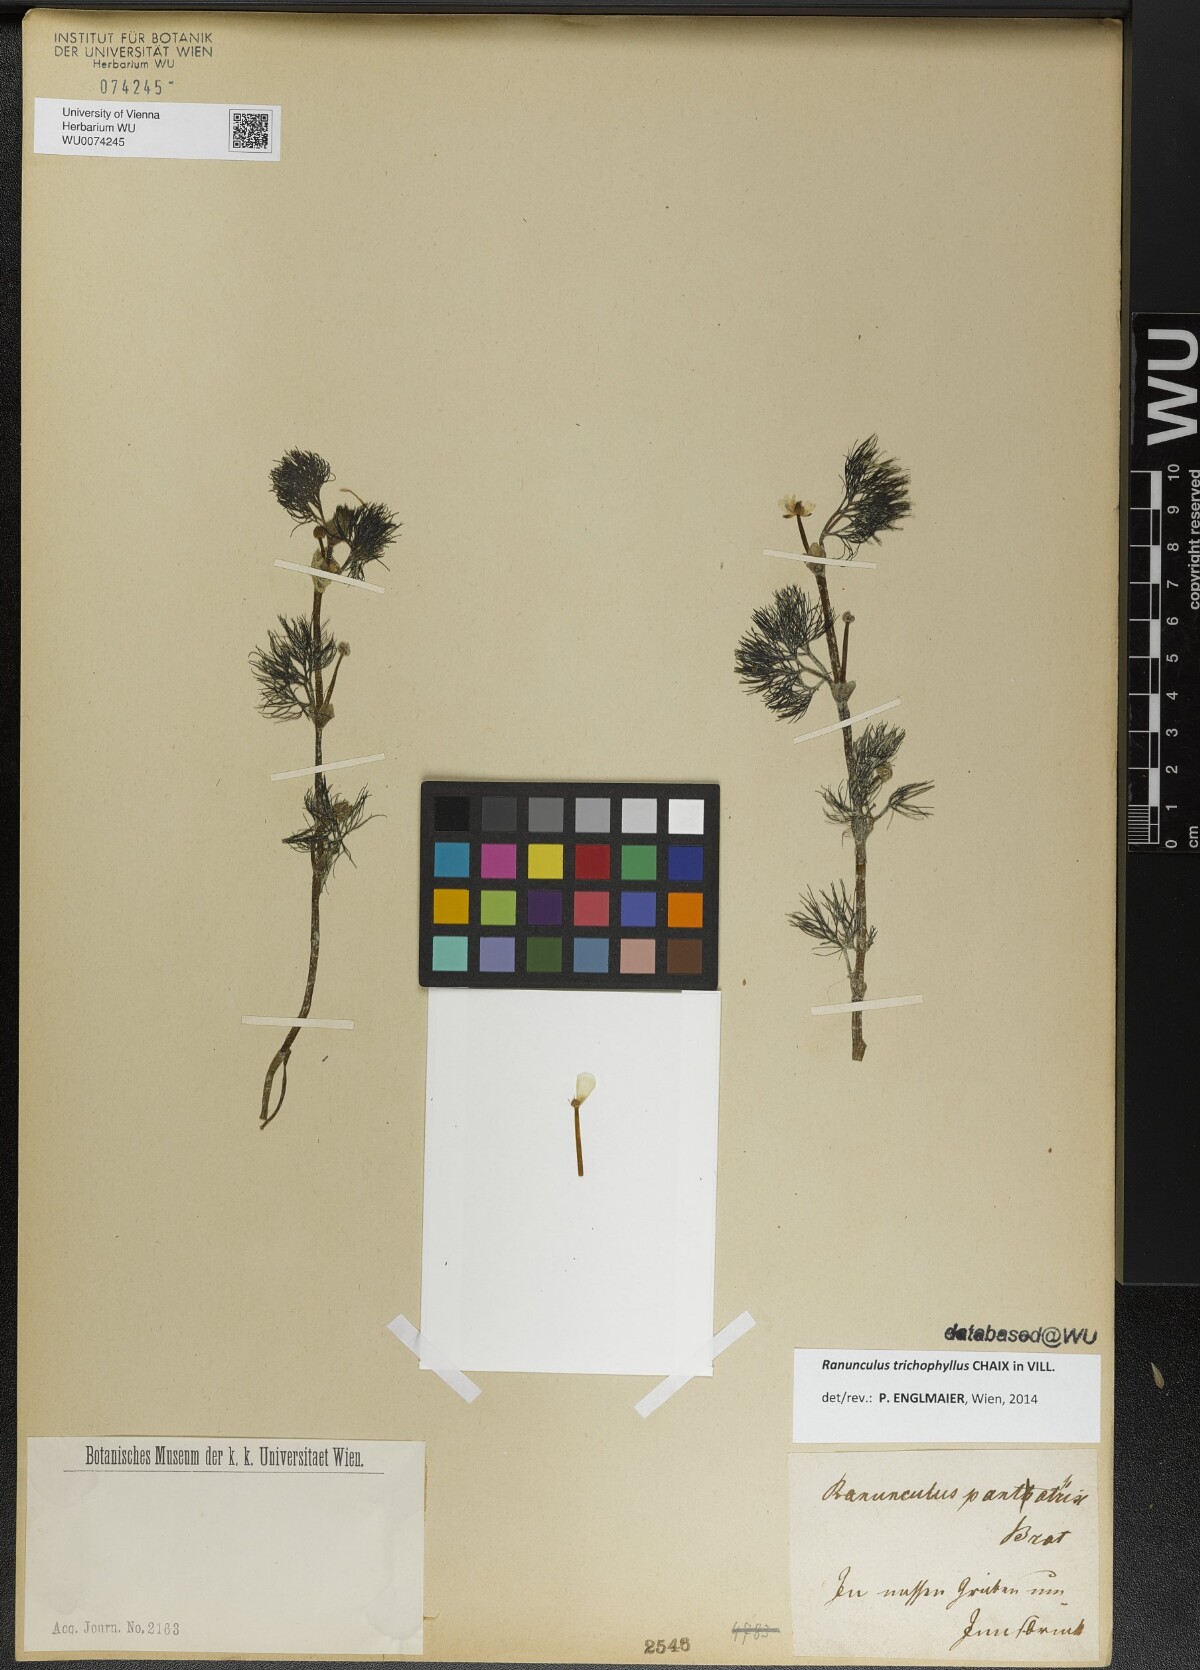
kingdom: Plantae
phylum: Tracheophyta
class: Magnoliopsida
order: Ranunculales
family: Ranunculaceae
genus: Ranunculus
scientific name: Ranunculus trichophyllus
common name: Thread-leaved water-crowfoot
